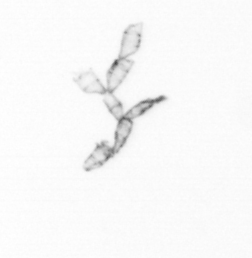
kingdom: Chromista
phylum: Ochrophyta
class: Bacillariophyceae
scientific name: Bacillariophyceae
